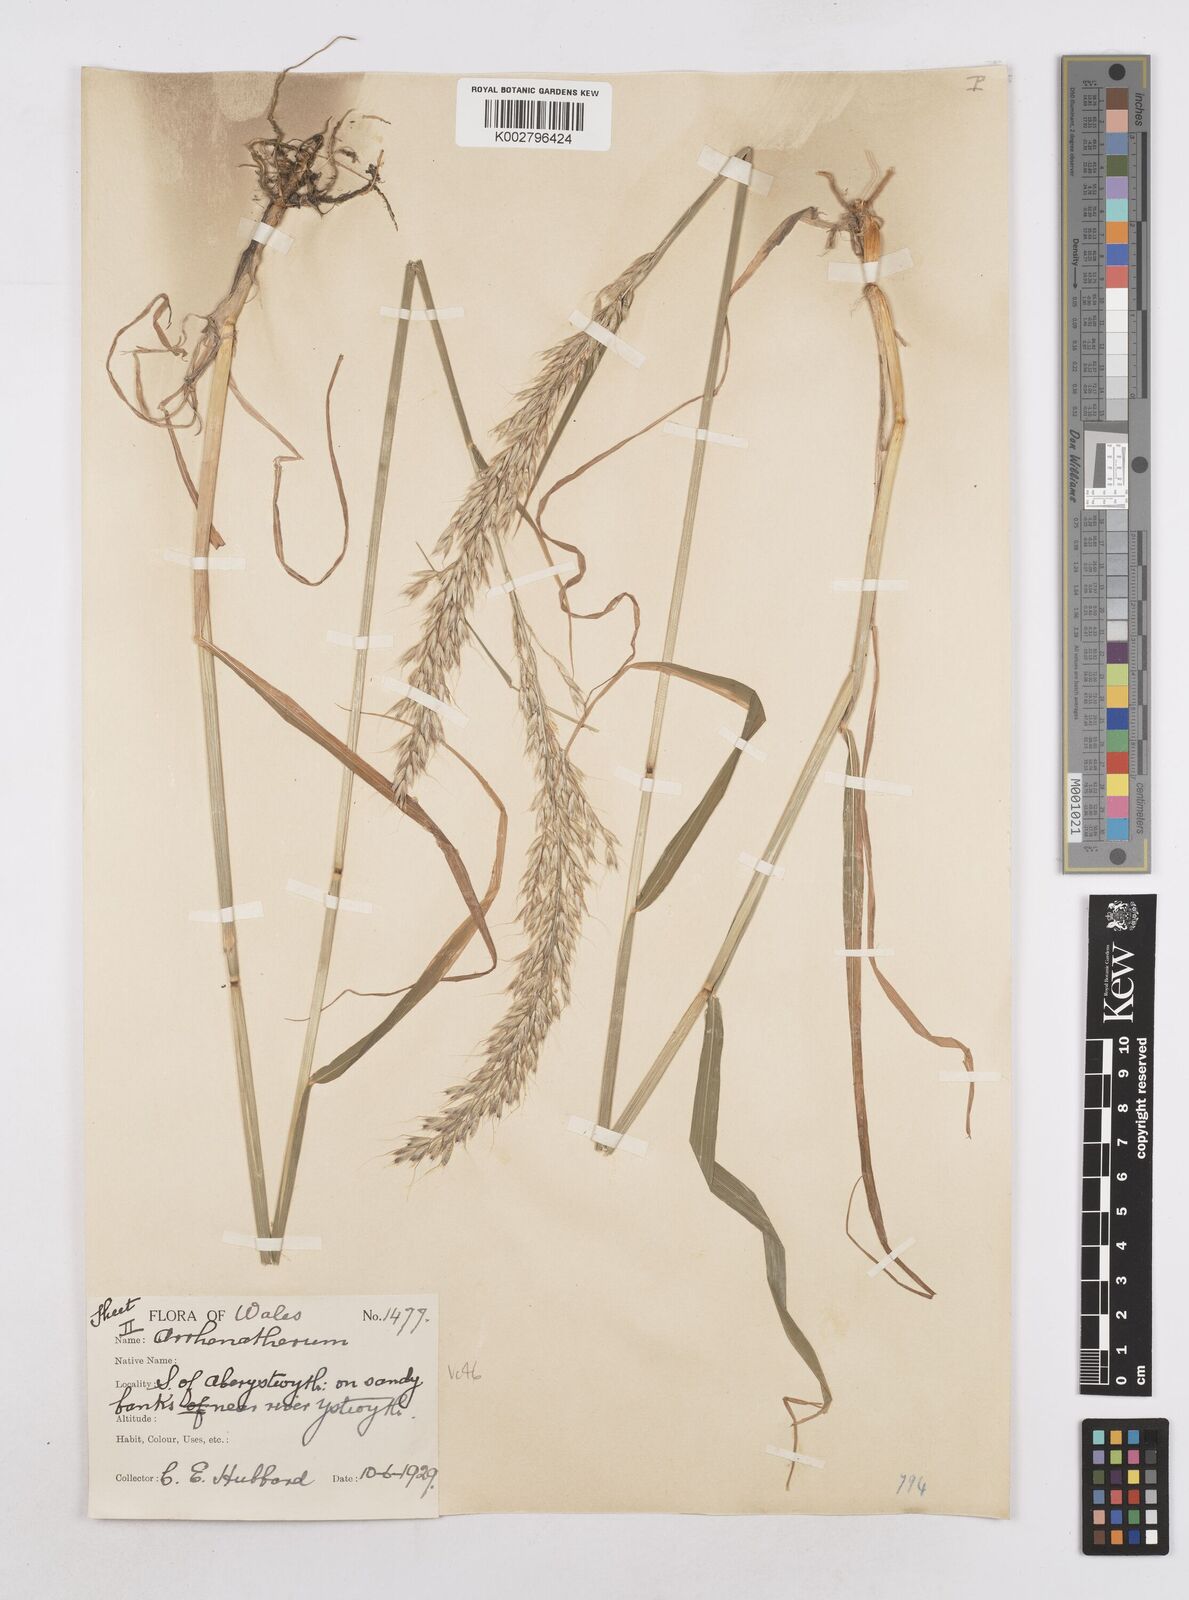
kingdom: Plantae
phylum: Tracheophyta
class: Liliopsida
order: Poales
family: Poaceae
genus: Arrhenatherum
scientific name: Arrhenatherum elatius
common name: Tall oatgrass
